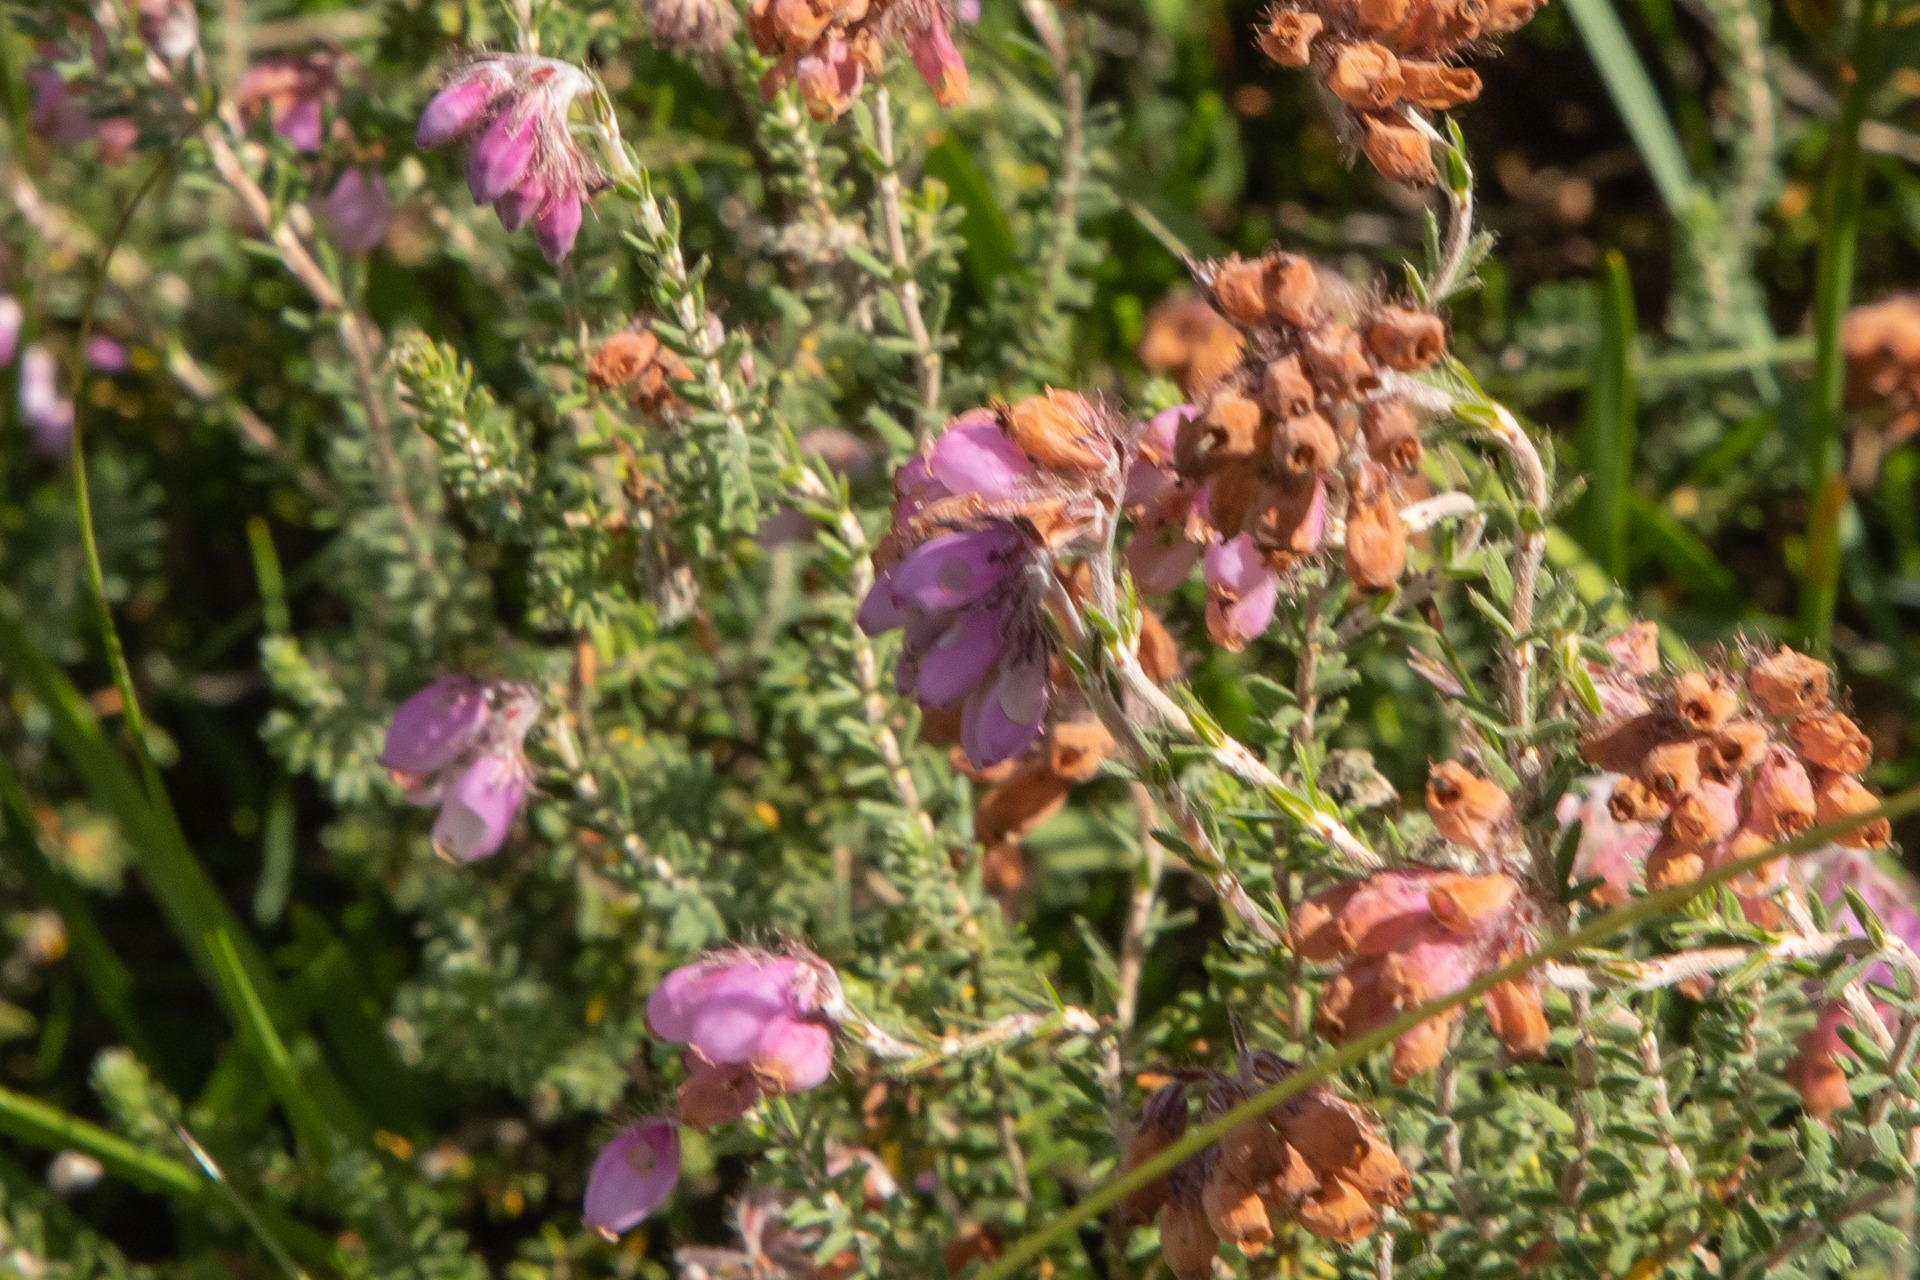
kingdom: Plantae
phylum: Tracheophyta
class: Magnoliopsida
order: Ericales
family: Ericaceae
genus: Erica
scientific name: Erica tetralix
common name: Klokkelyng
